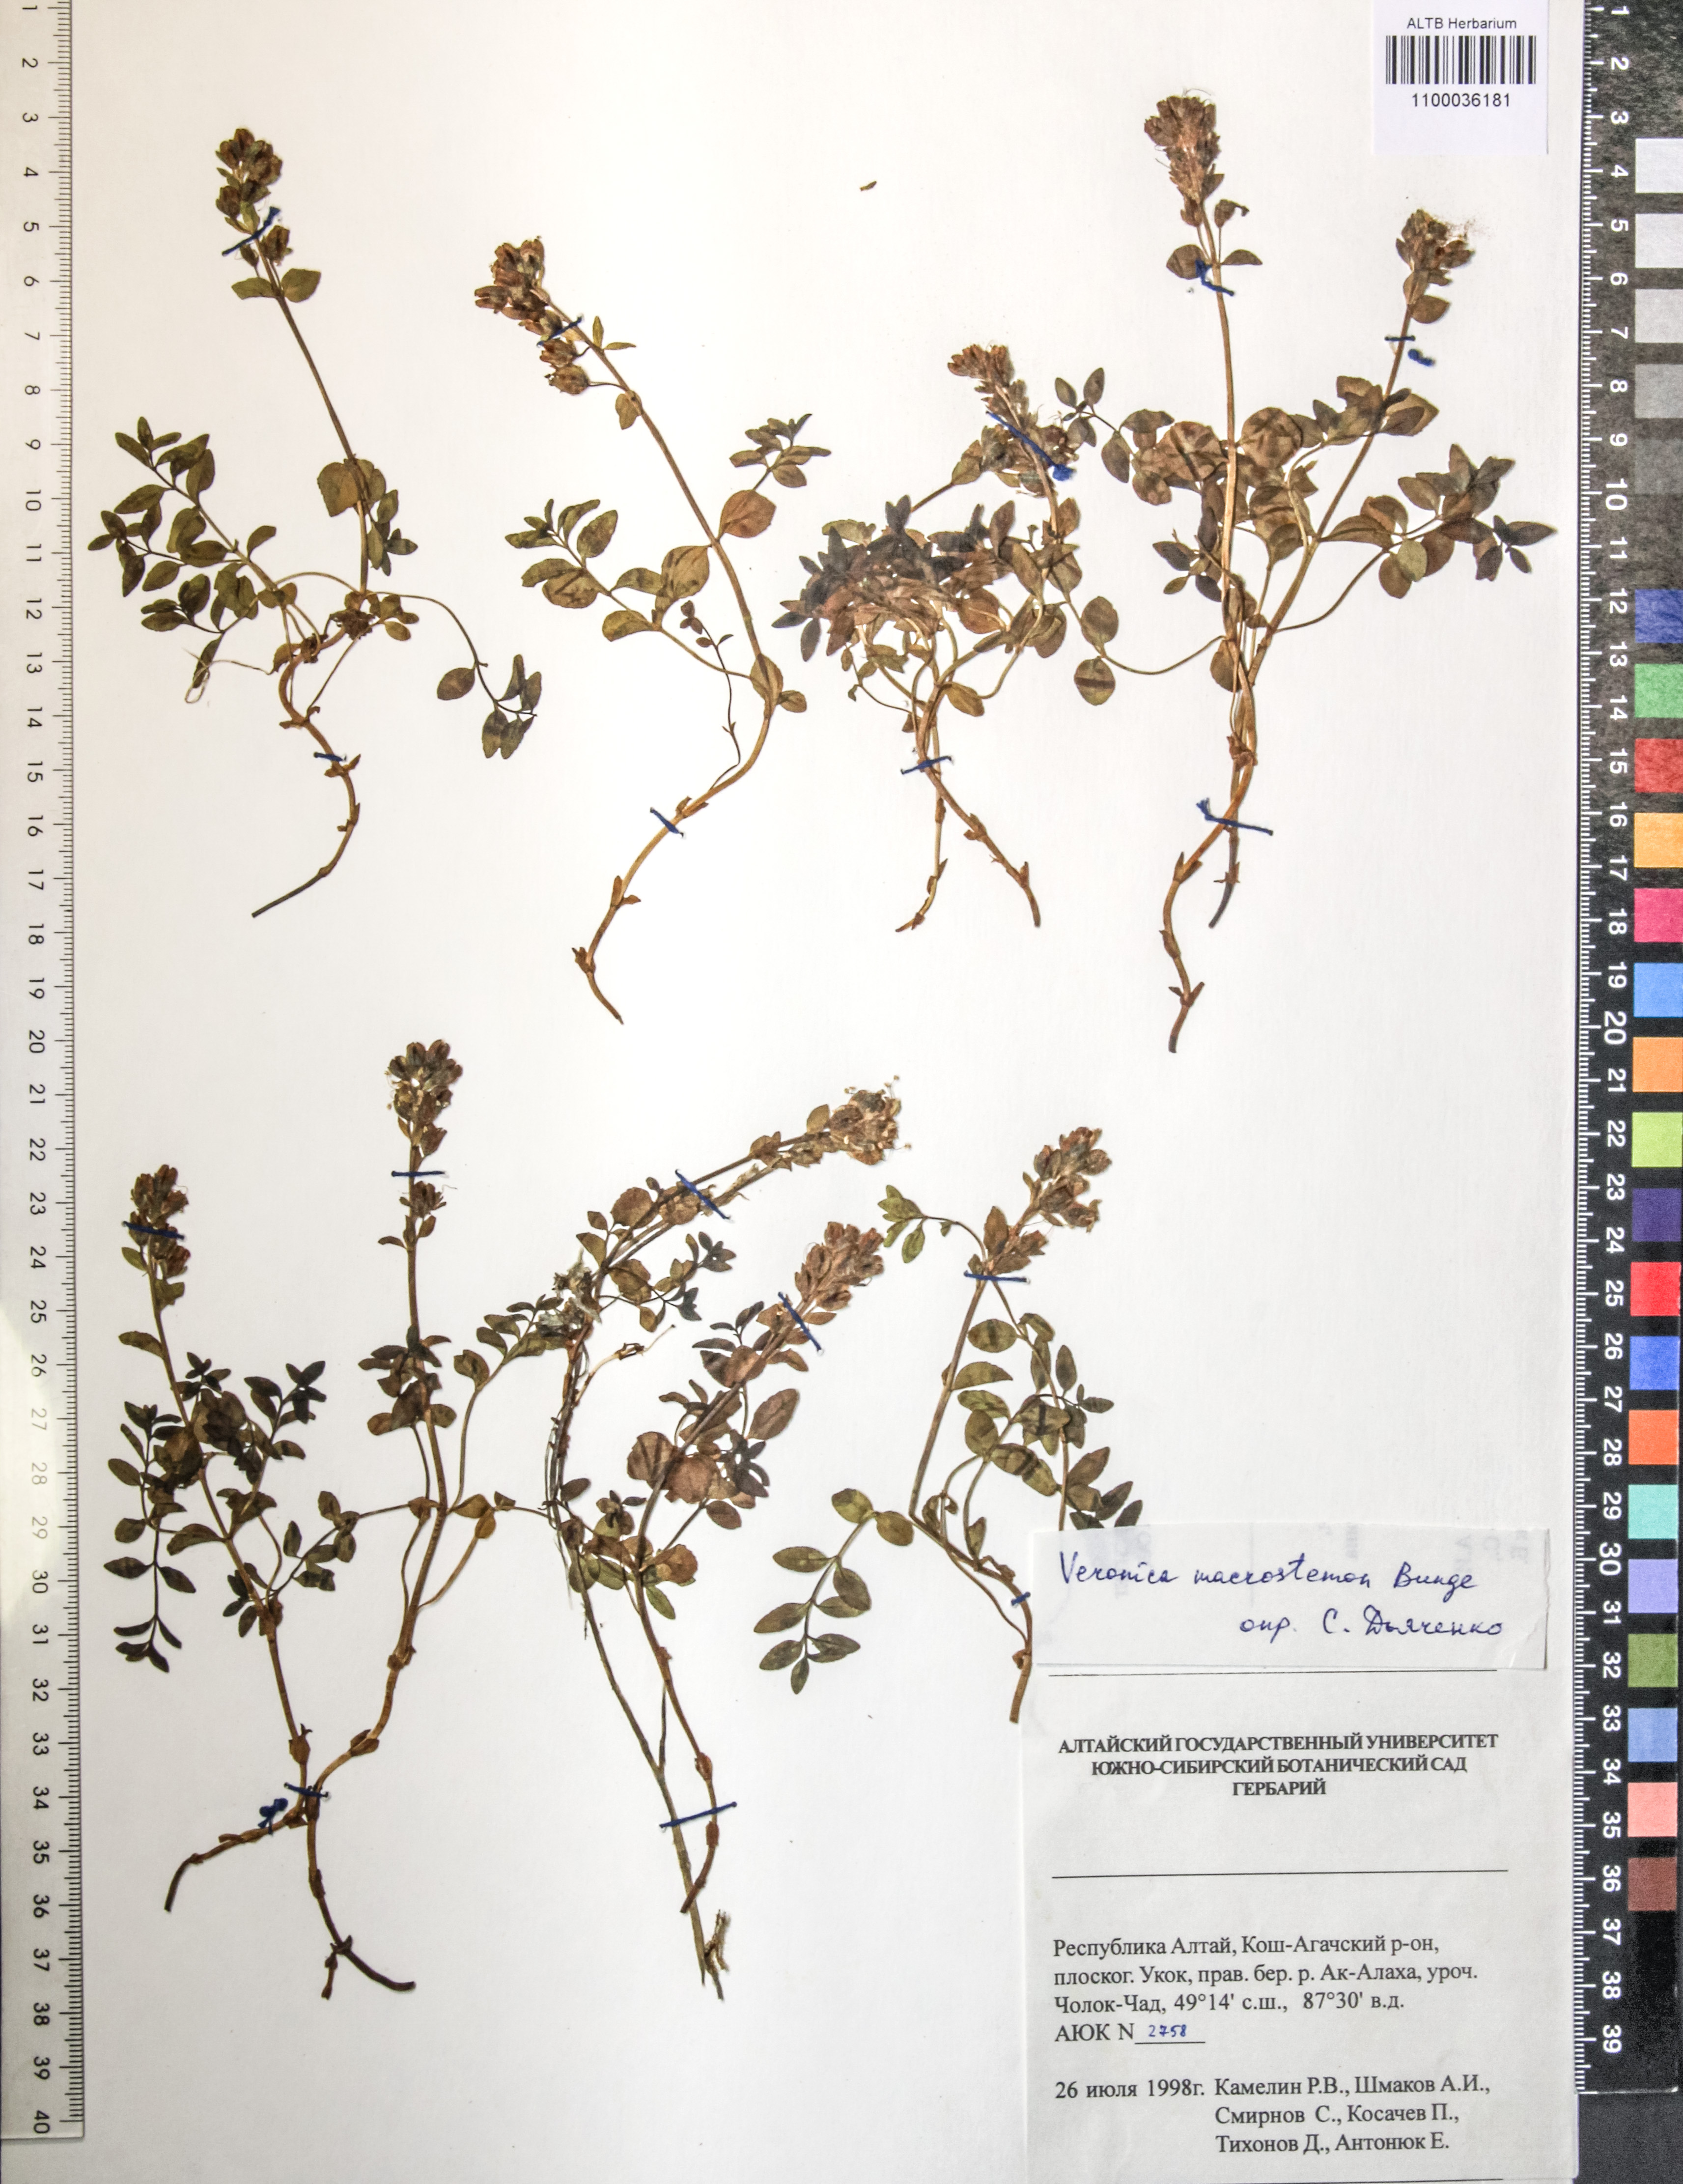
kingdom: Plantae
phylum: Tracheophyta
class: Magnoliopsida
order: Lamiales
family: Plantaginaceae
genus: Veronica
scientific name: Veronica macrostemon
